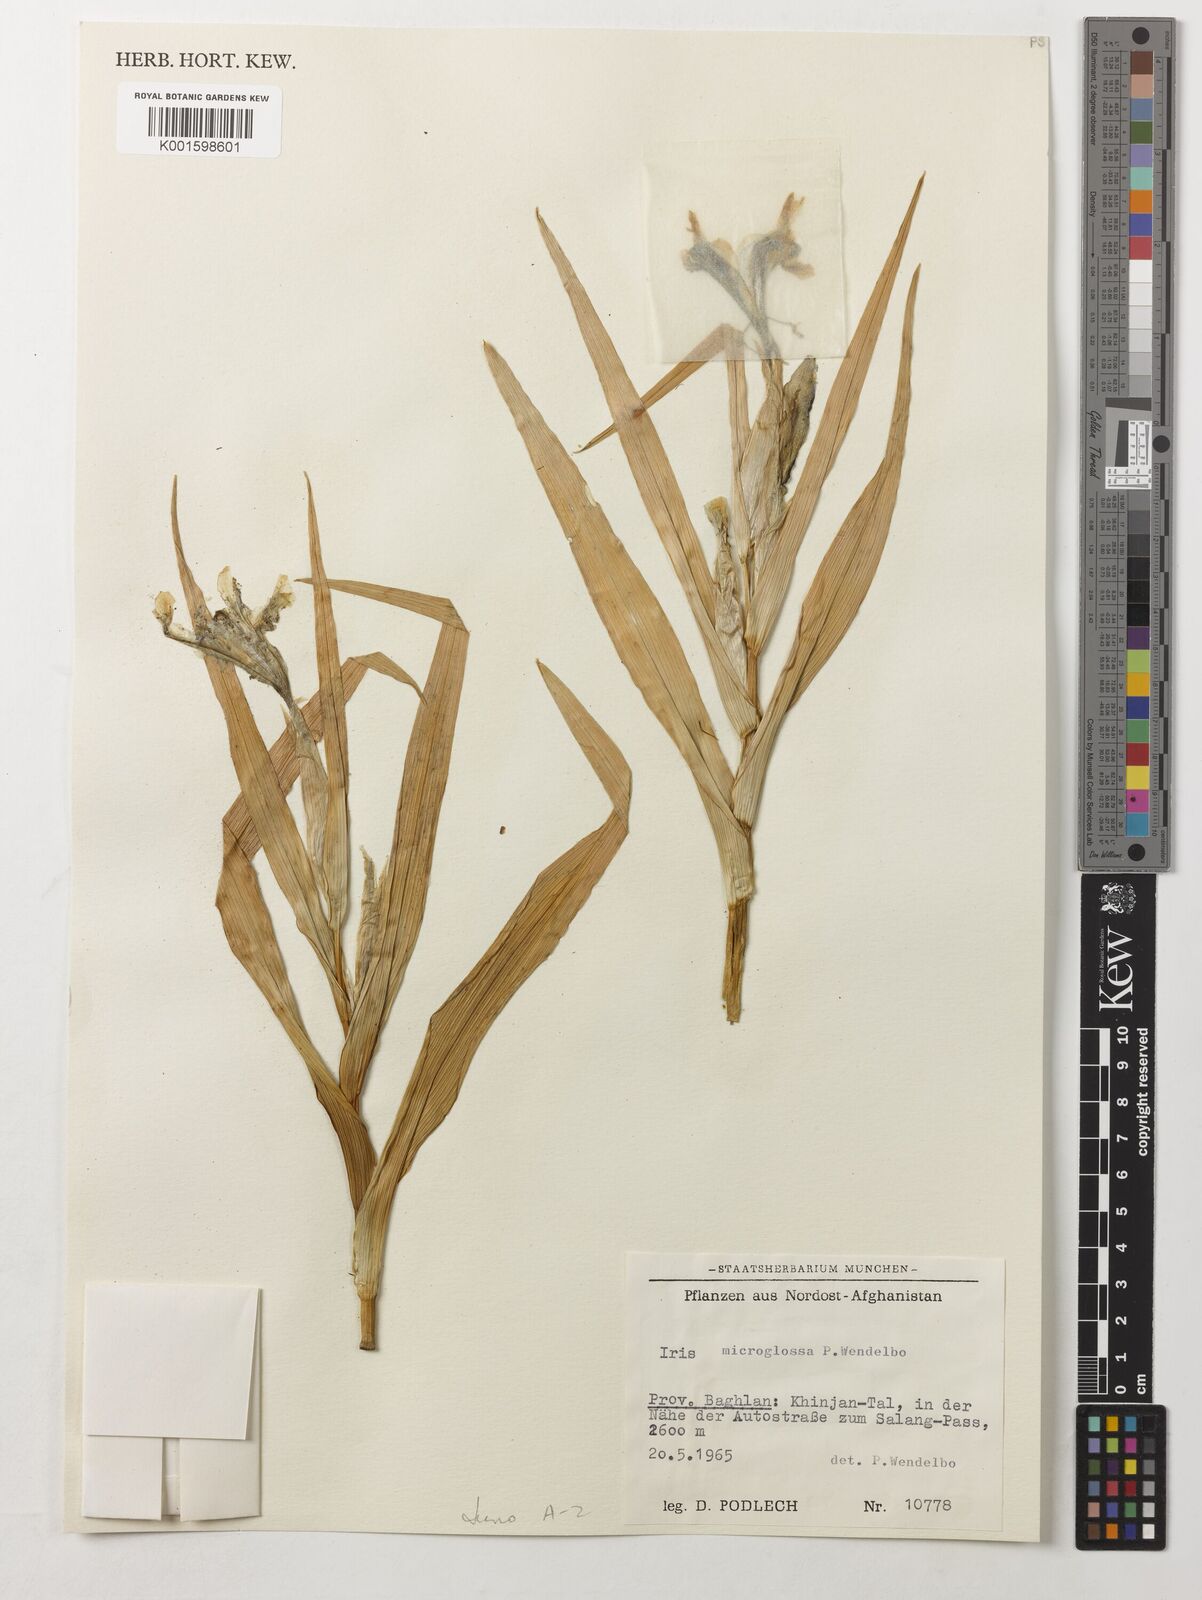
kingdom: Plantae
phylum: Tracheophyta
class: Liliopsida
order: Asparagales
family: Iridaceae
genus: Iris
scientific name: Iris microglossa
